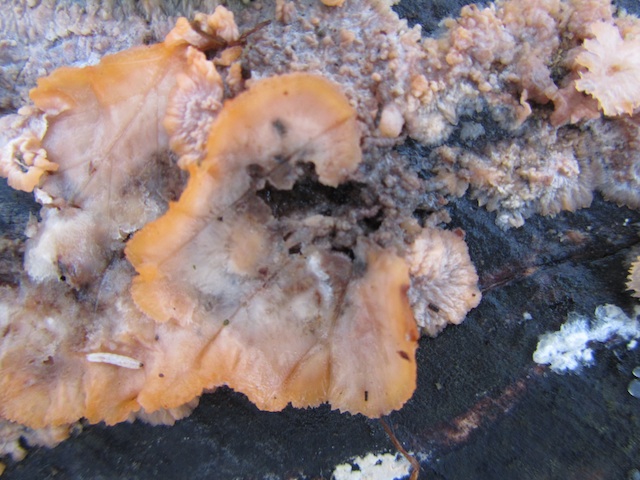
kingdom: Fungi
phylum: Basidiomycota
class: Agaricomycetes
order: Polyporales
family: Meruliaceae
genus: Phlebia
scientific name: Phlebia radiata
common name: stråle-åresvamp
